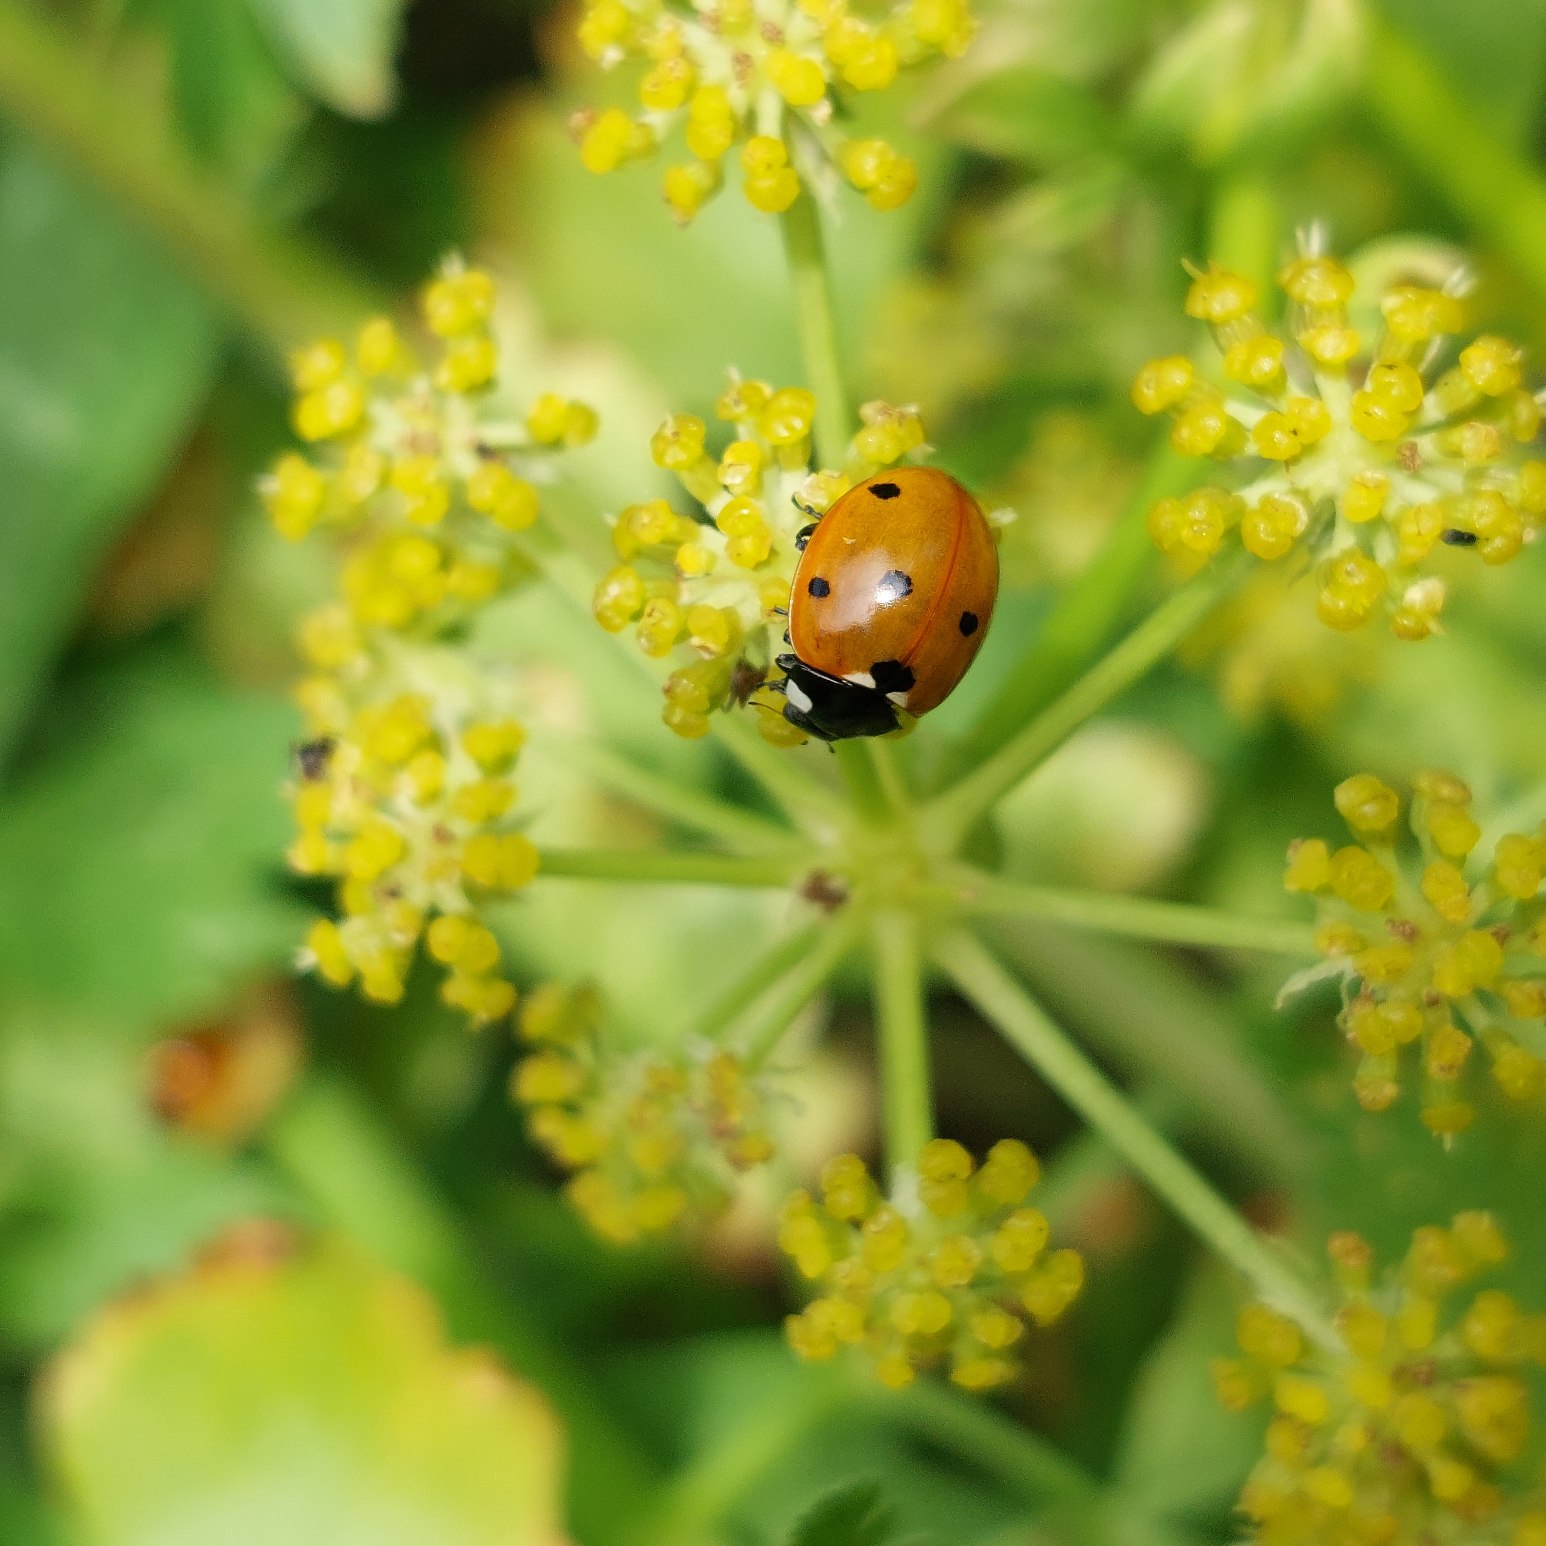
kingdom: Animalia
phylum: Arthropoda
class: Insecta
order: Coleoptera
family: Coccinellidae
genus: Coccinella
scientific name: Coccinella septempunctata
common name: Syvplettet mariehøne
